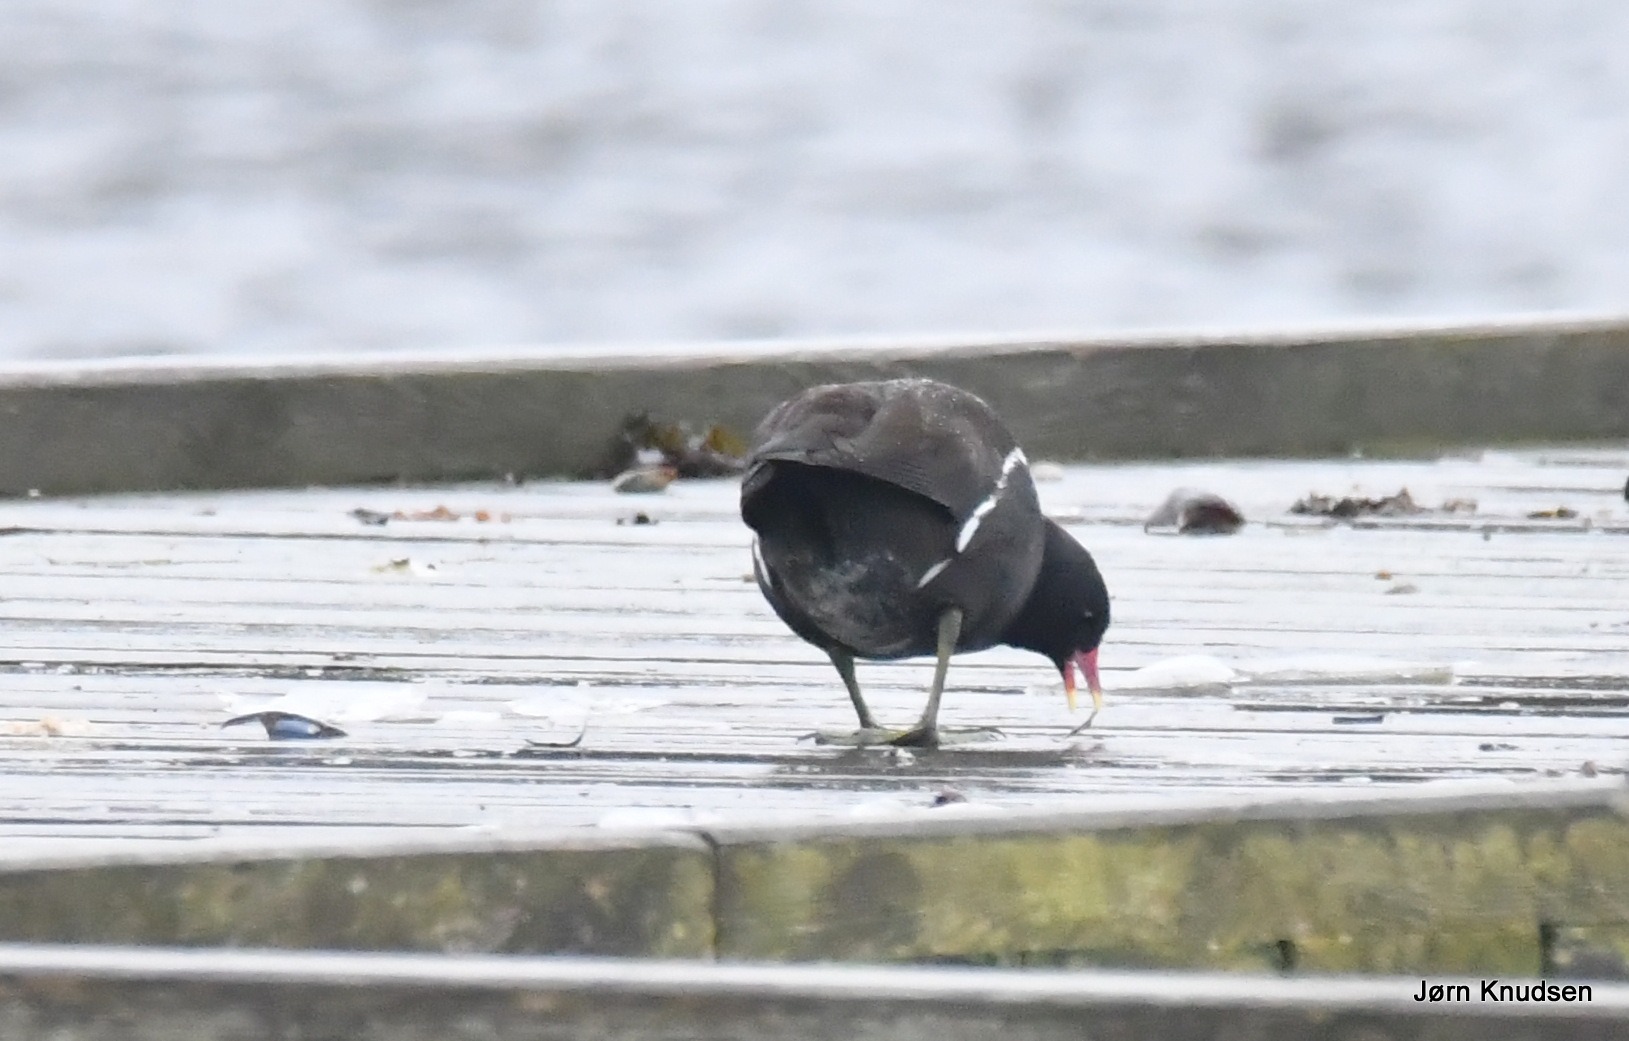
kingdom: Animalia
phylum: Chordata
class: Aves
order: Gruiformes
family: Rallidae
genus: Gallinula
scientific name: Gallinula chloropus
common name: Grønbenet rørhøne
